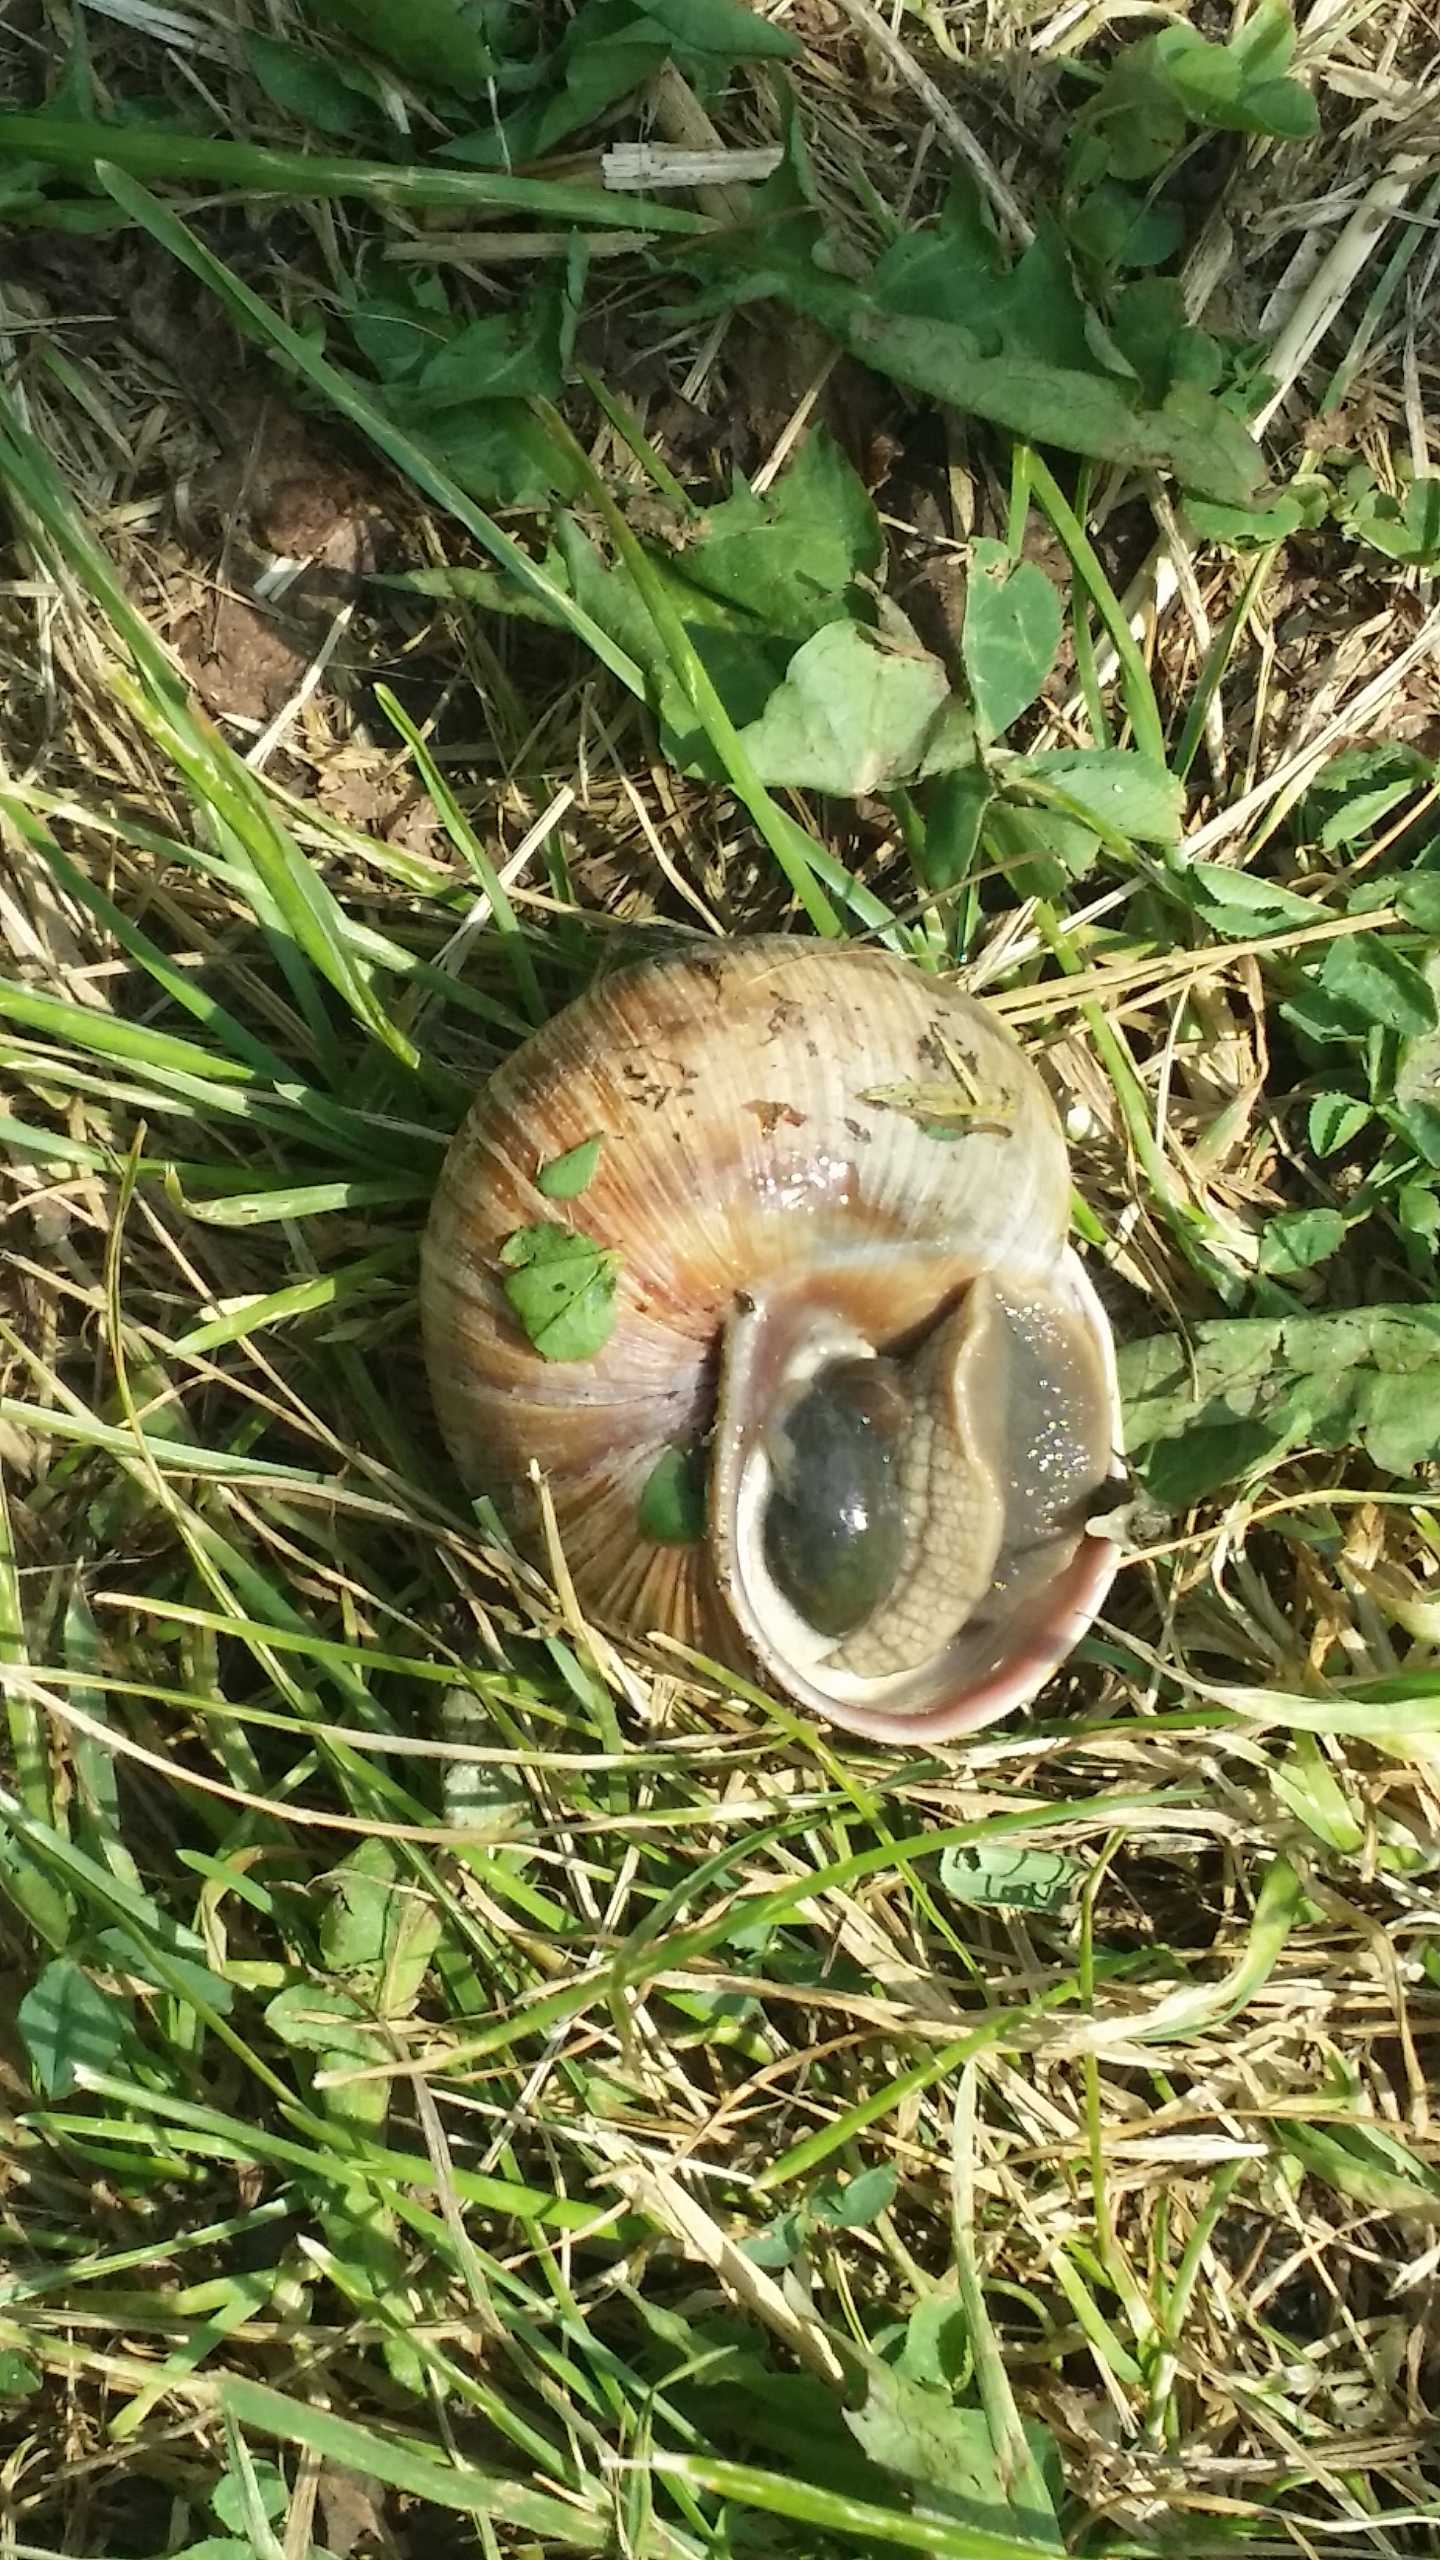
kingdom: Animalia
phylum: Mollusca
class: Gastropoda
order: Stylommatophora
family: Helicidae
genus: Helix
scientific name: Helix pomatia
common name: Vinbjergsnegl
